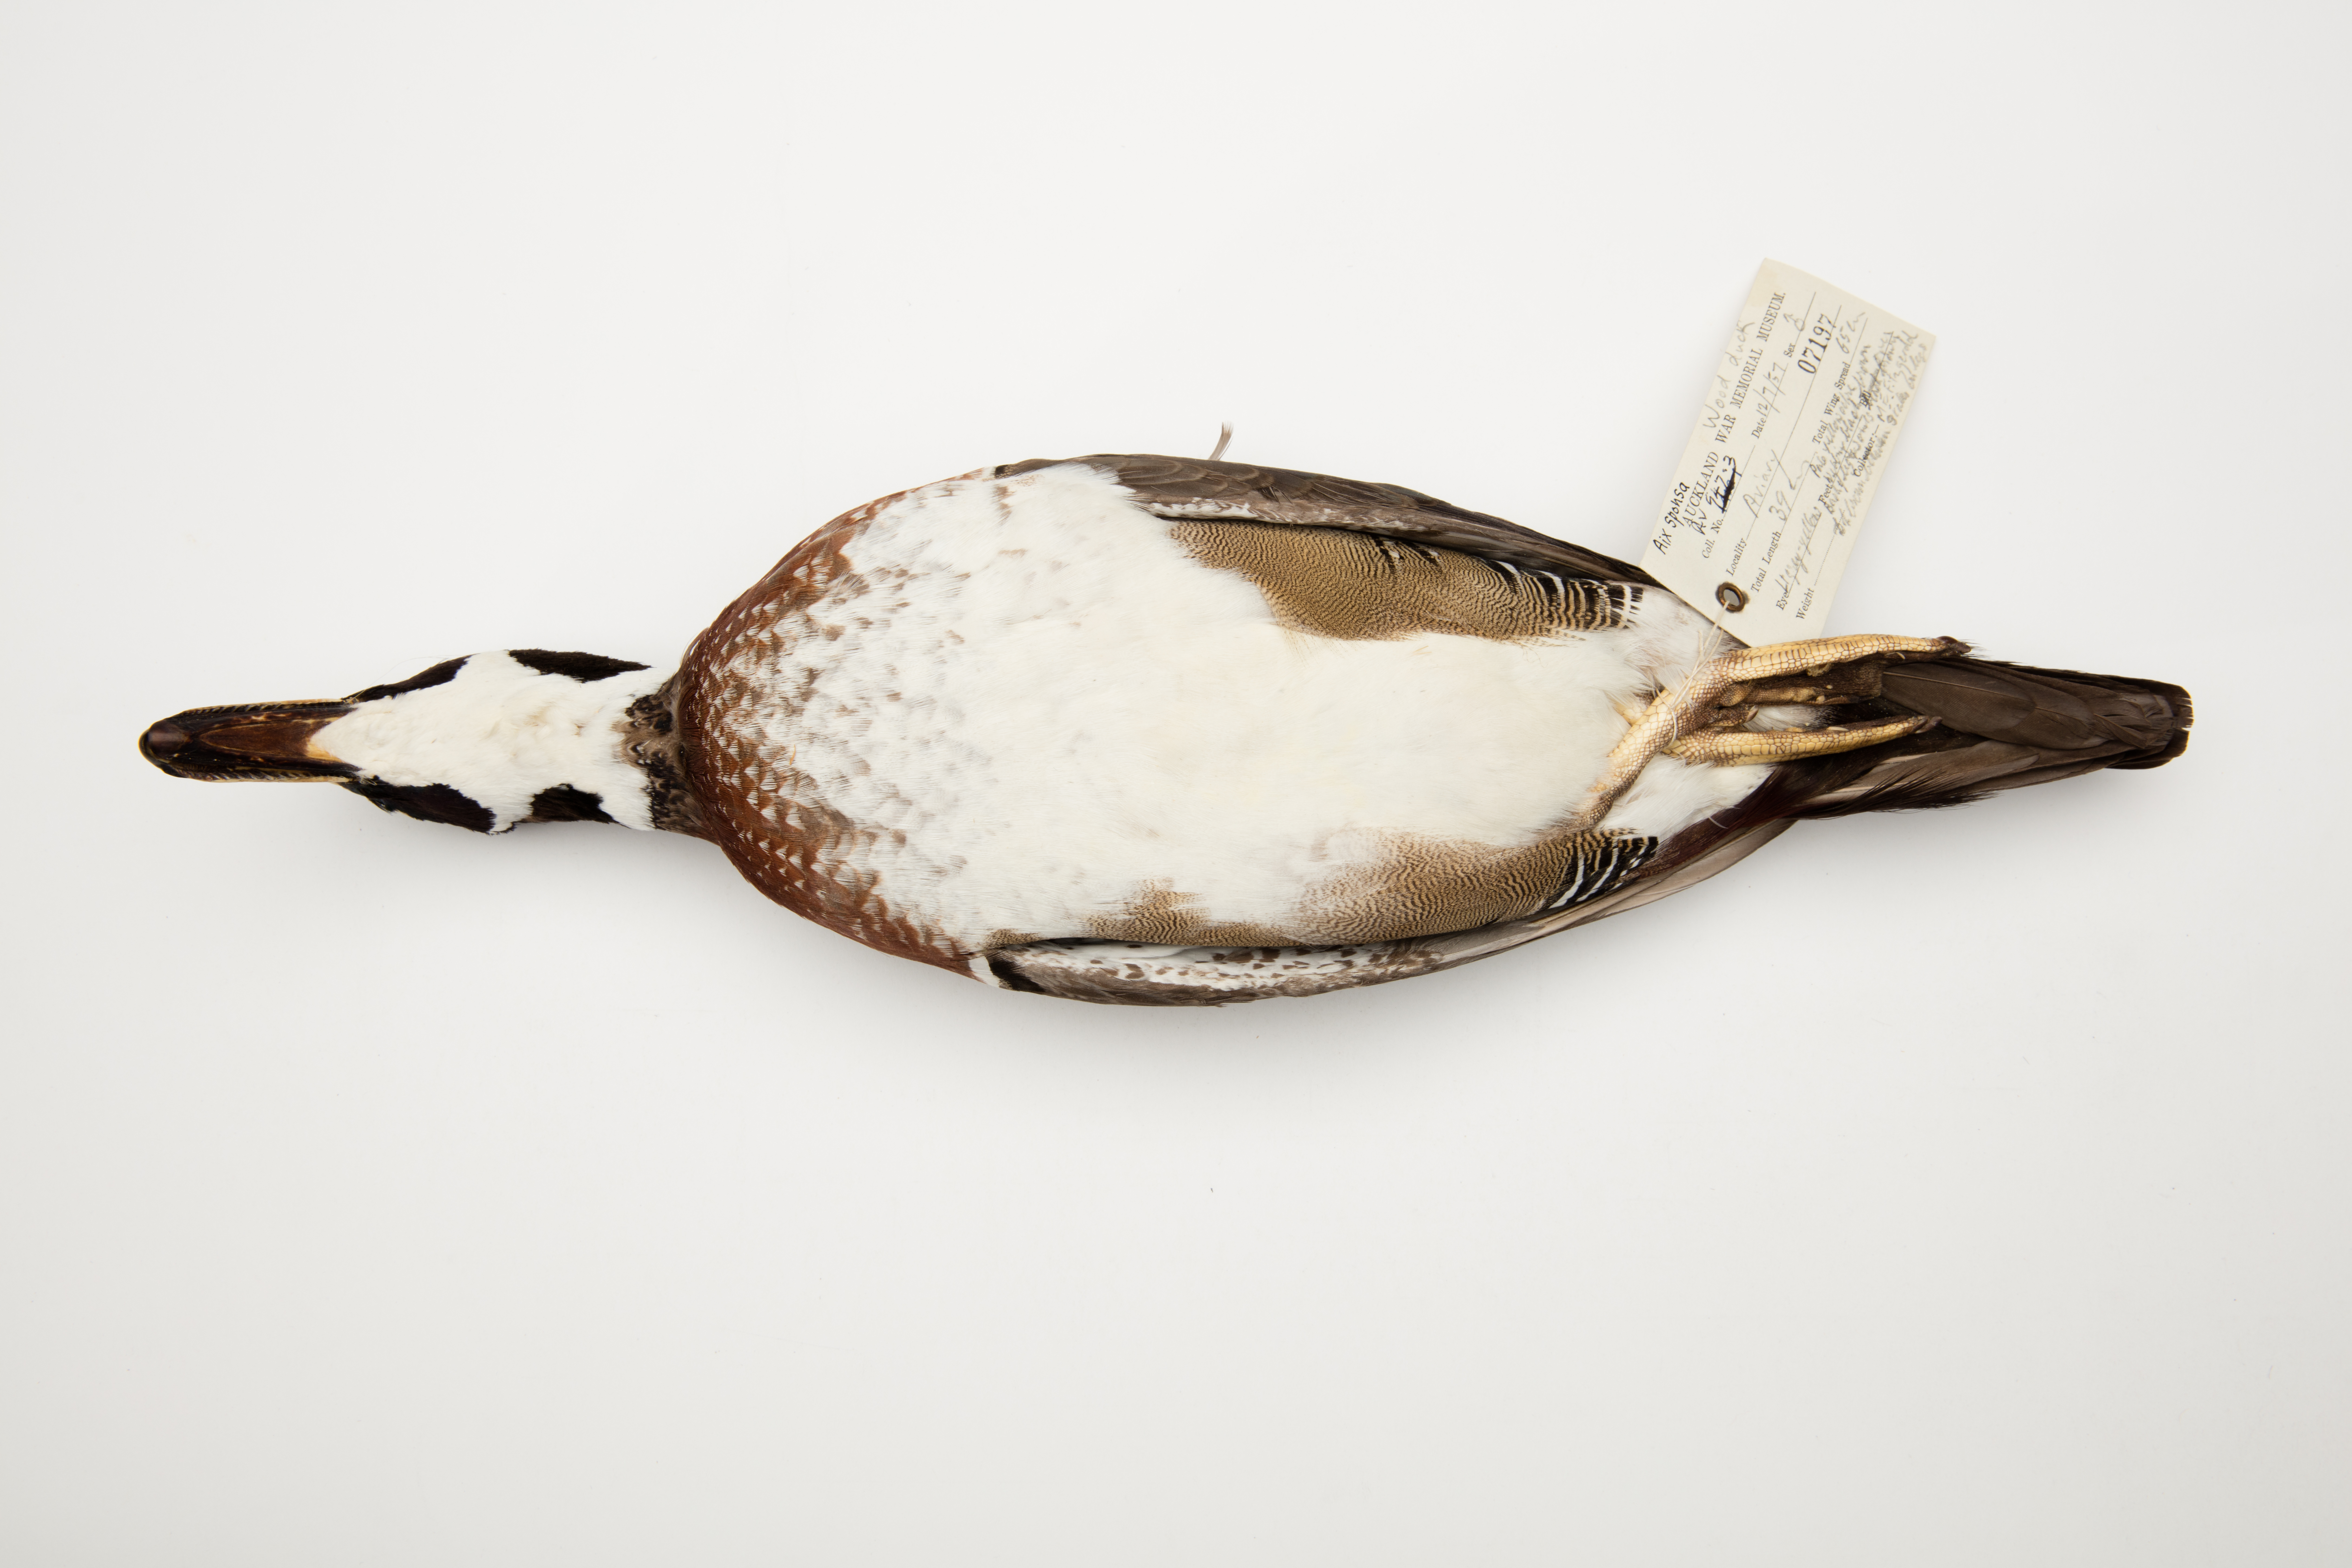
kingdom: Animalia
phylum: Chordata
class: Aves
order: Anseriformes
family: Anatidae
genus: Aix
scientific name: Aix sponsa
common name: Wood duck
